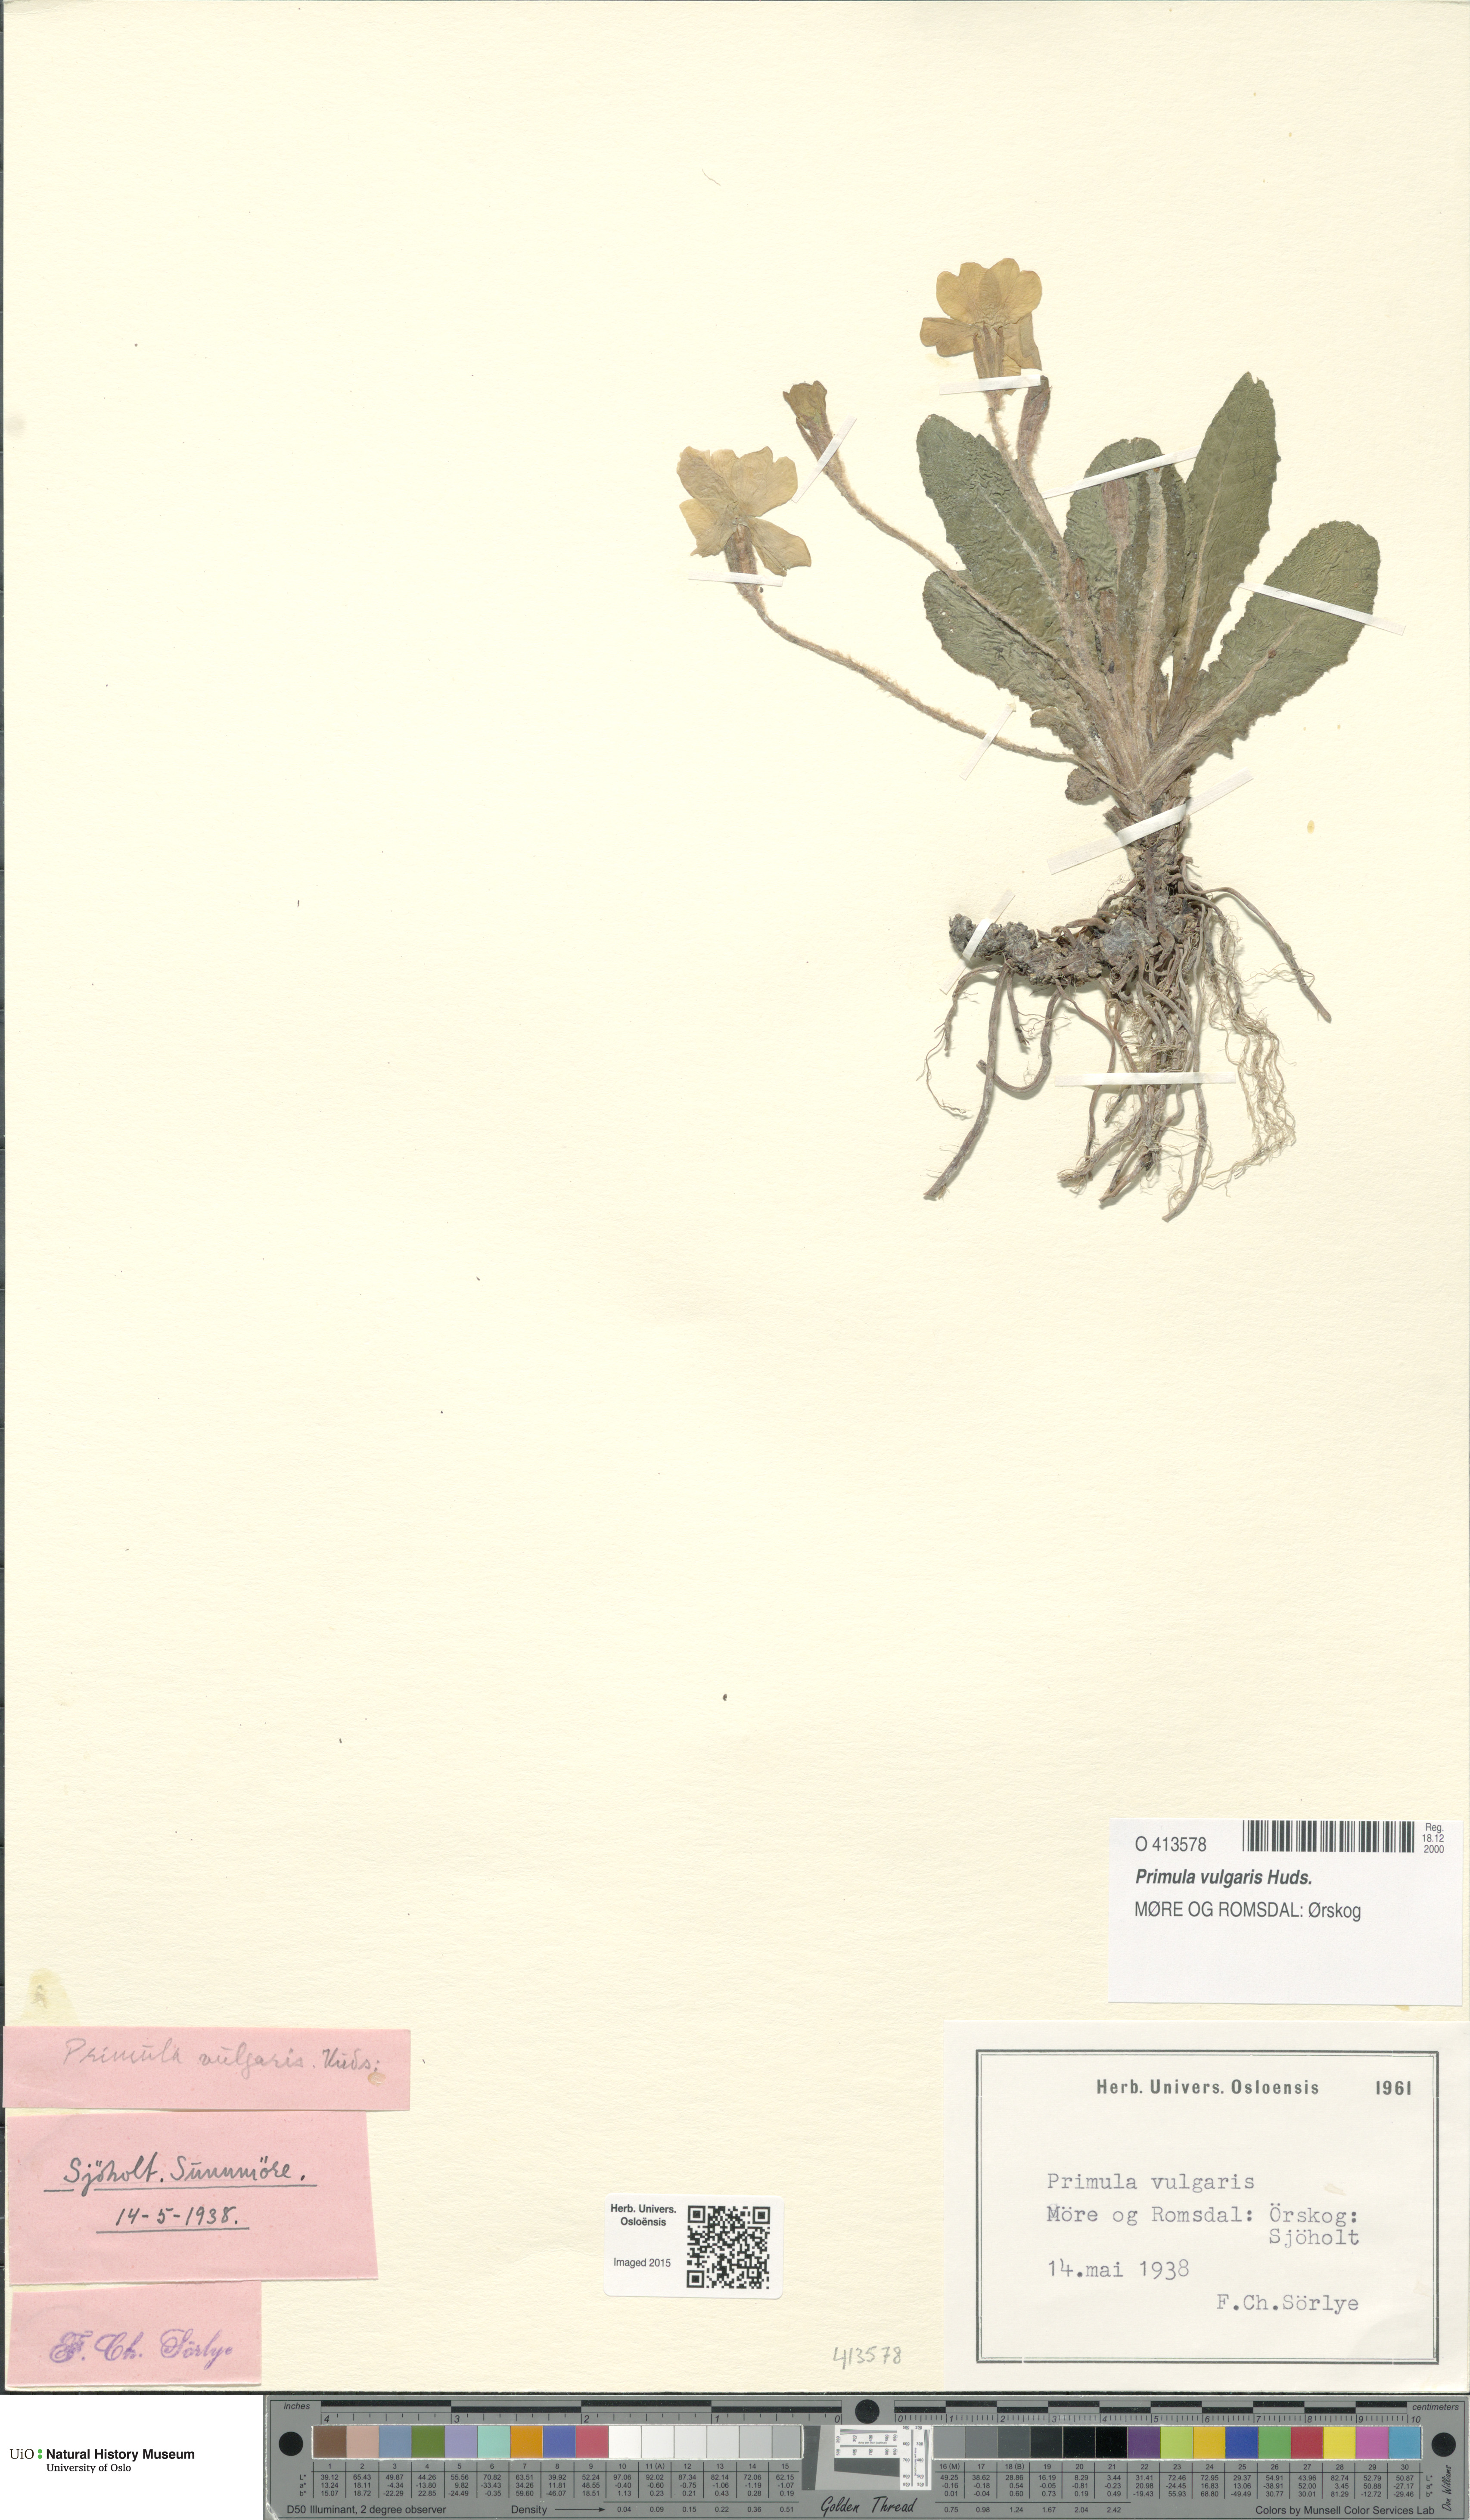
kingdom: Plantae
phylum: Tracheophyta
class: Magnoliopsida
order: Ericales
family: Primulaceae
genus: Primula
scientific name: Primula vulgaris
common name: Primrose
